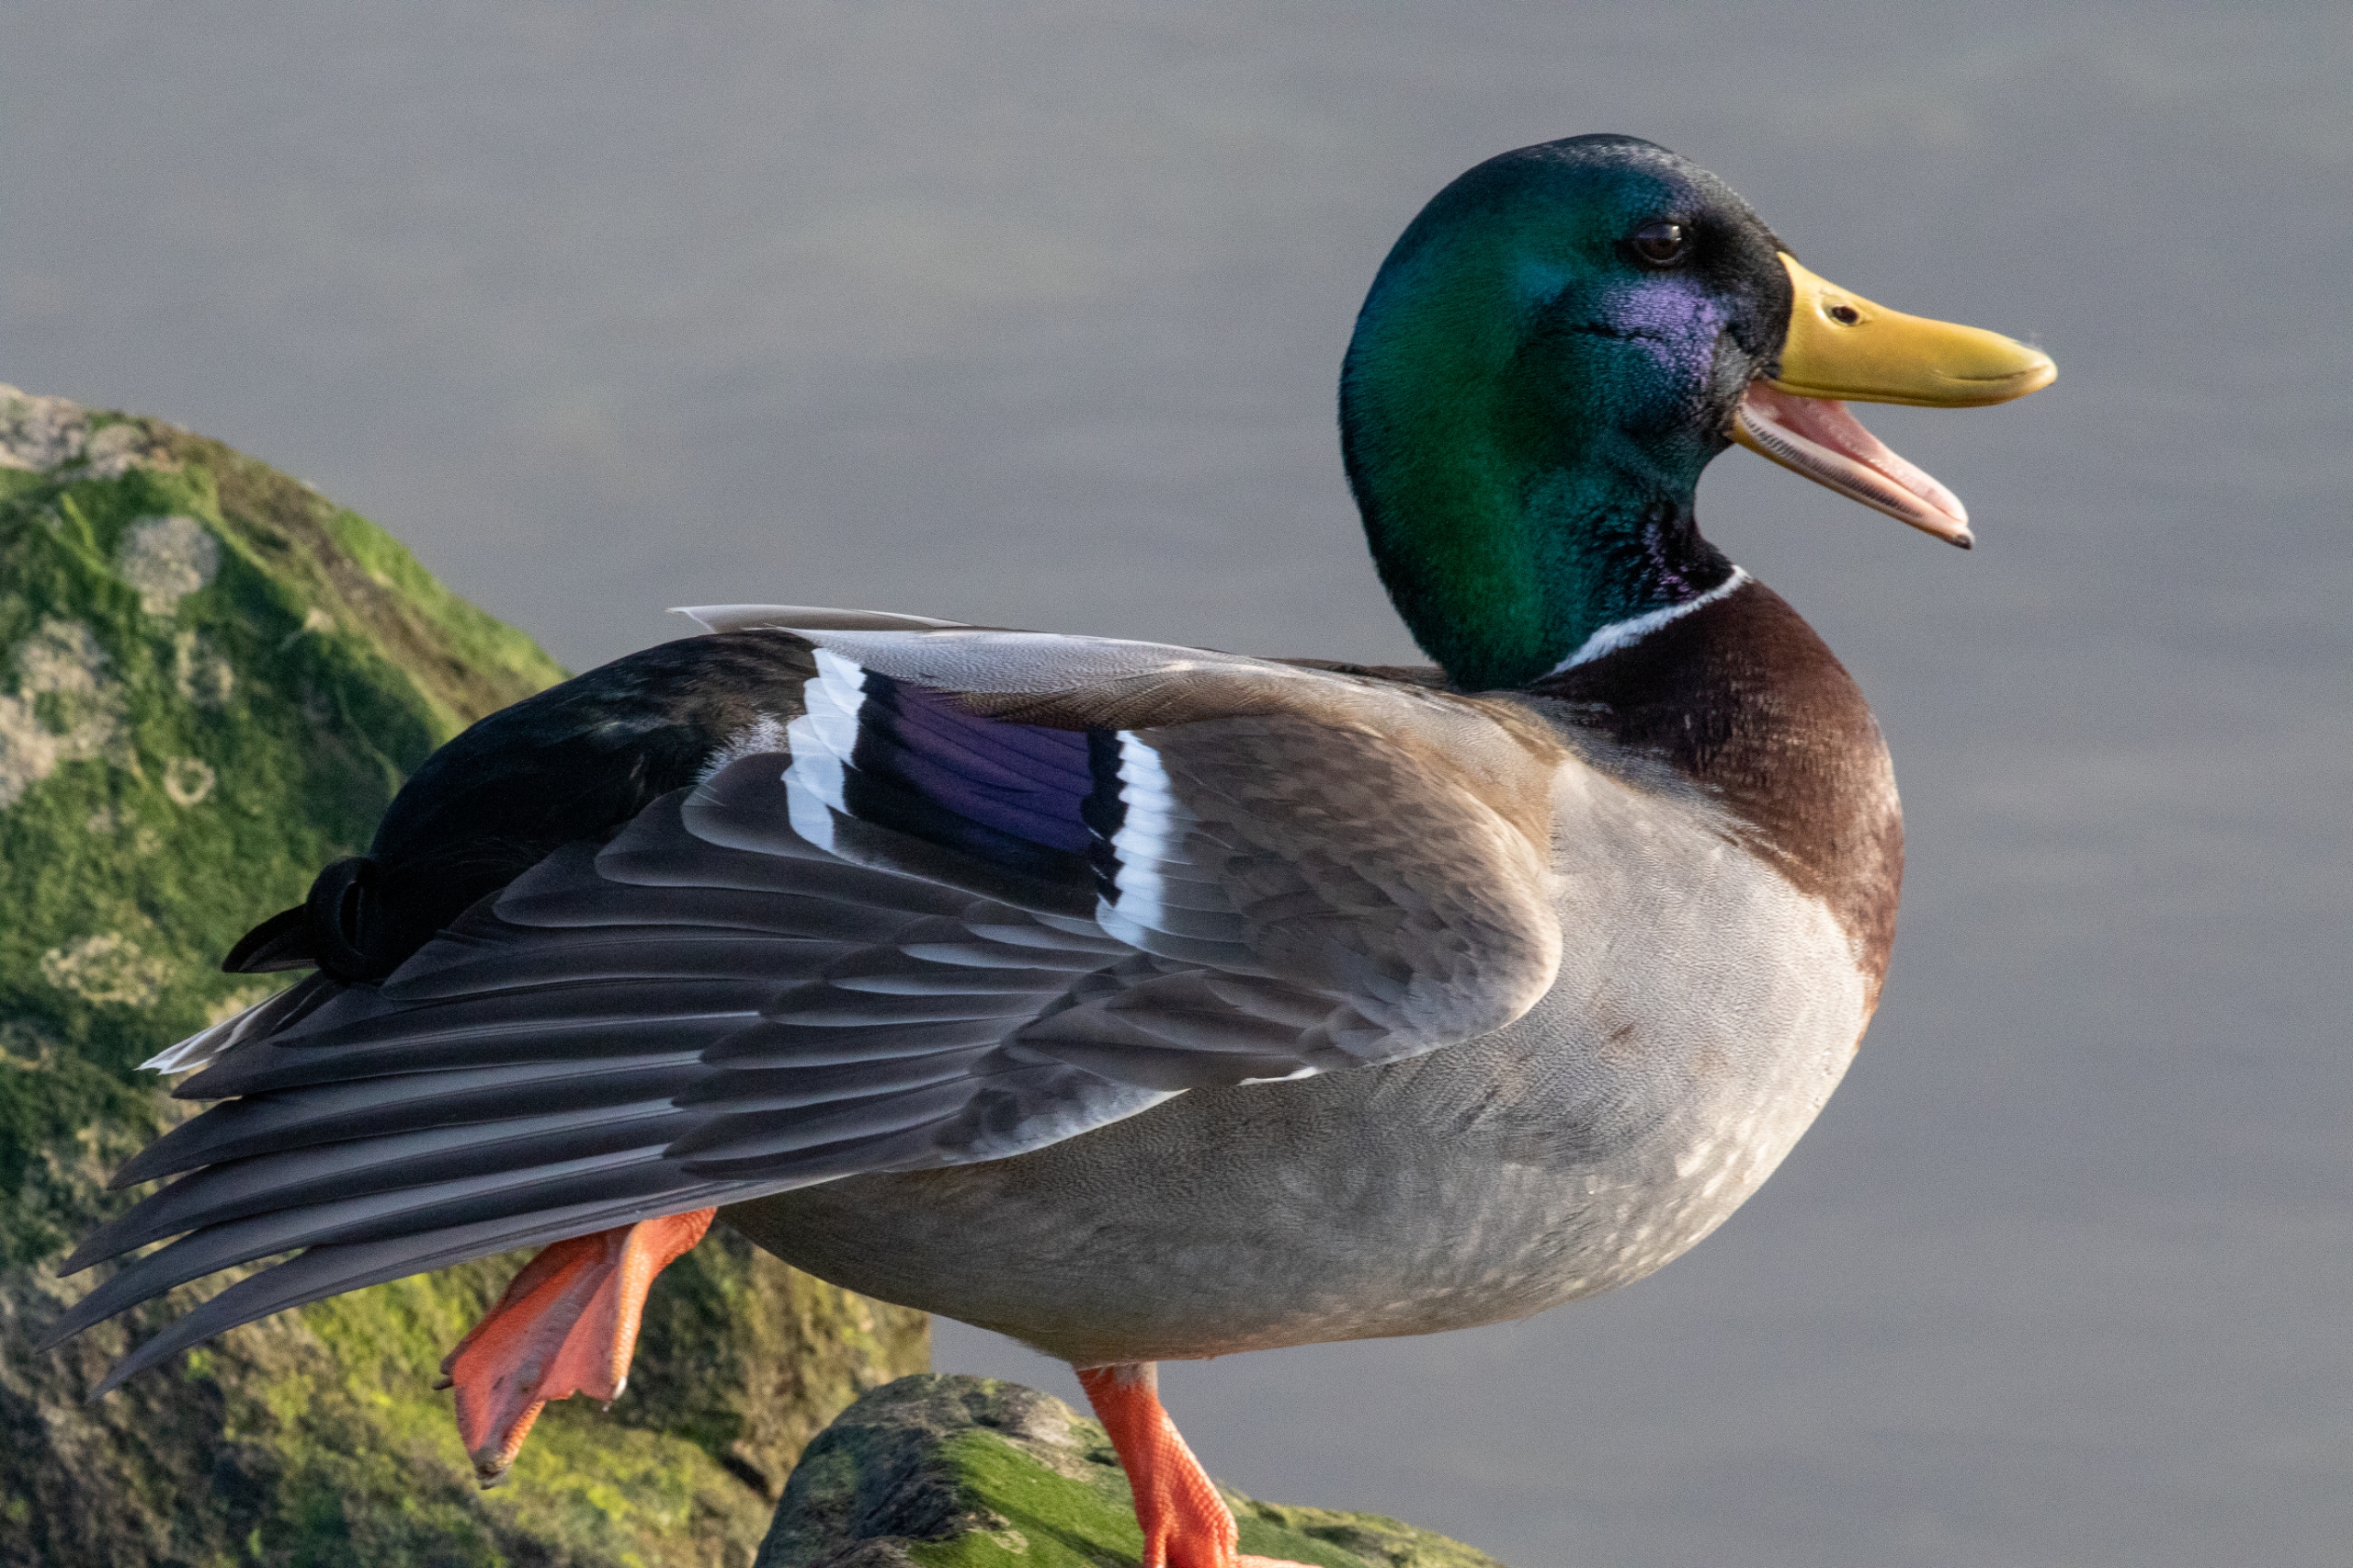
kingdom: Animalia
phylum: Chordata
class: Aves
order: Anseriformes
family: Anatidae
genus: Anas
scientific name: Anas platyrhynchos
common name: Gråand
